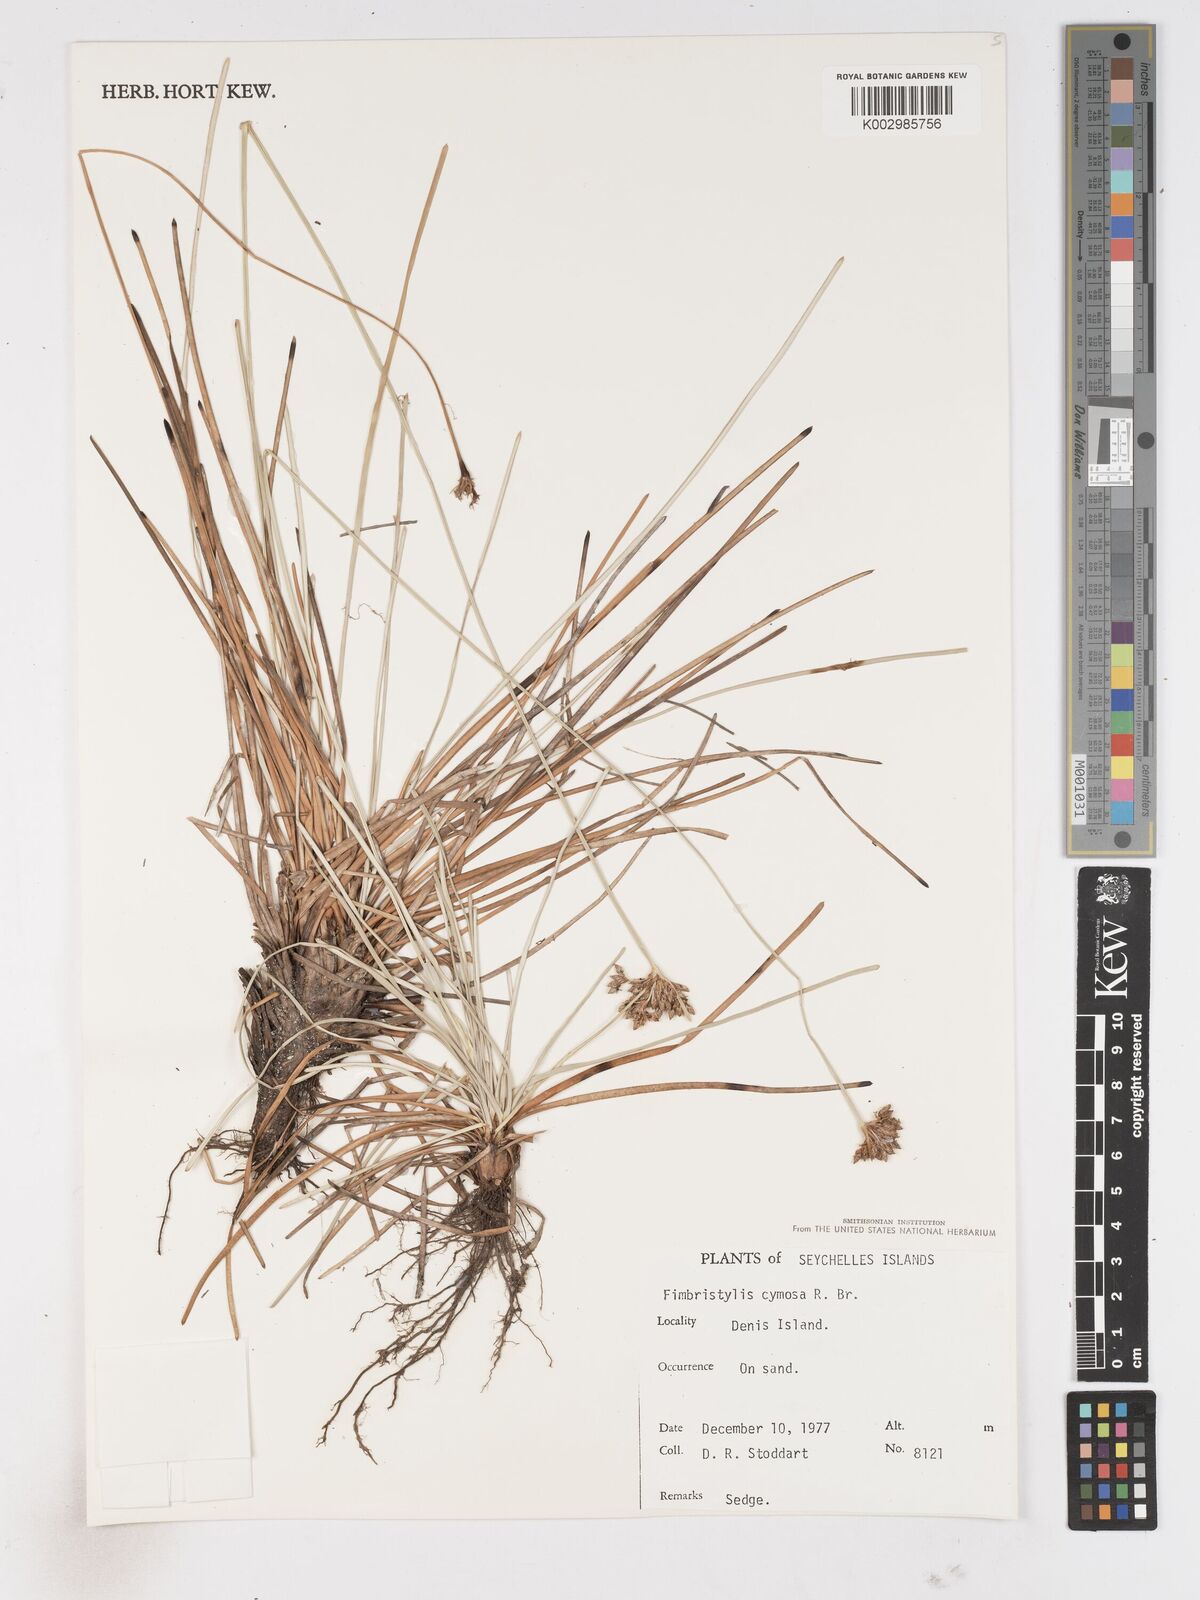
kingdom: Plantae
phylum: Tracheophyta
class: Liliopsida
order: Poales
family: Cyperaceae
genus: Fimbristylis
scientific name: Fimbristylis cymosa
